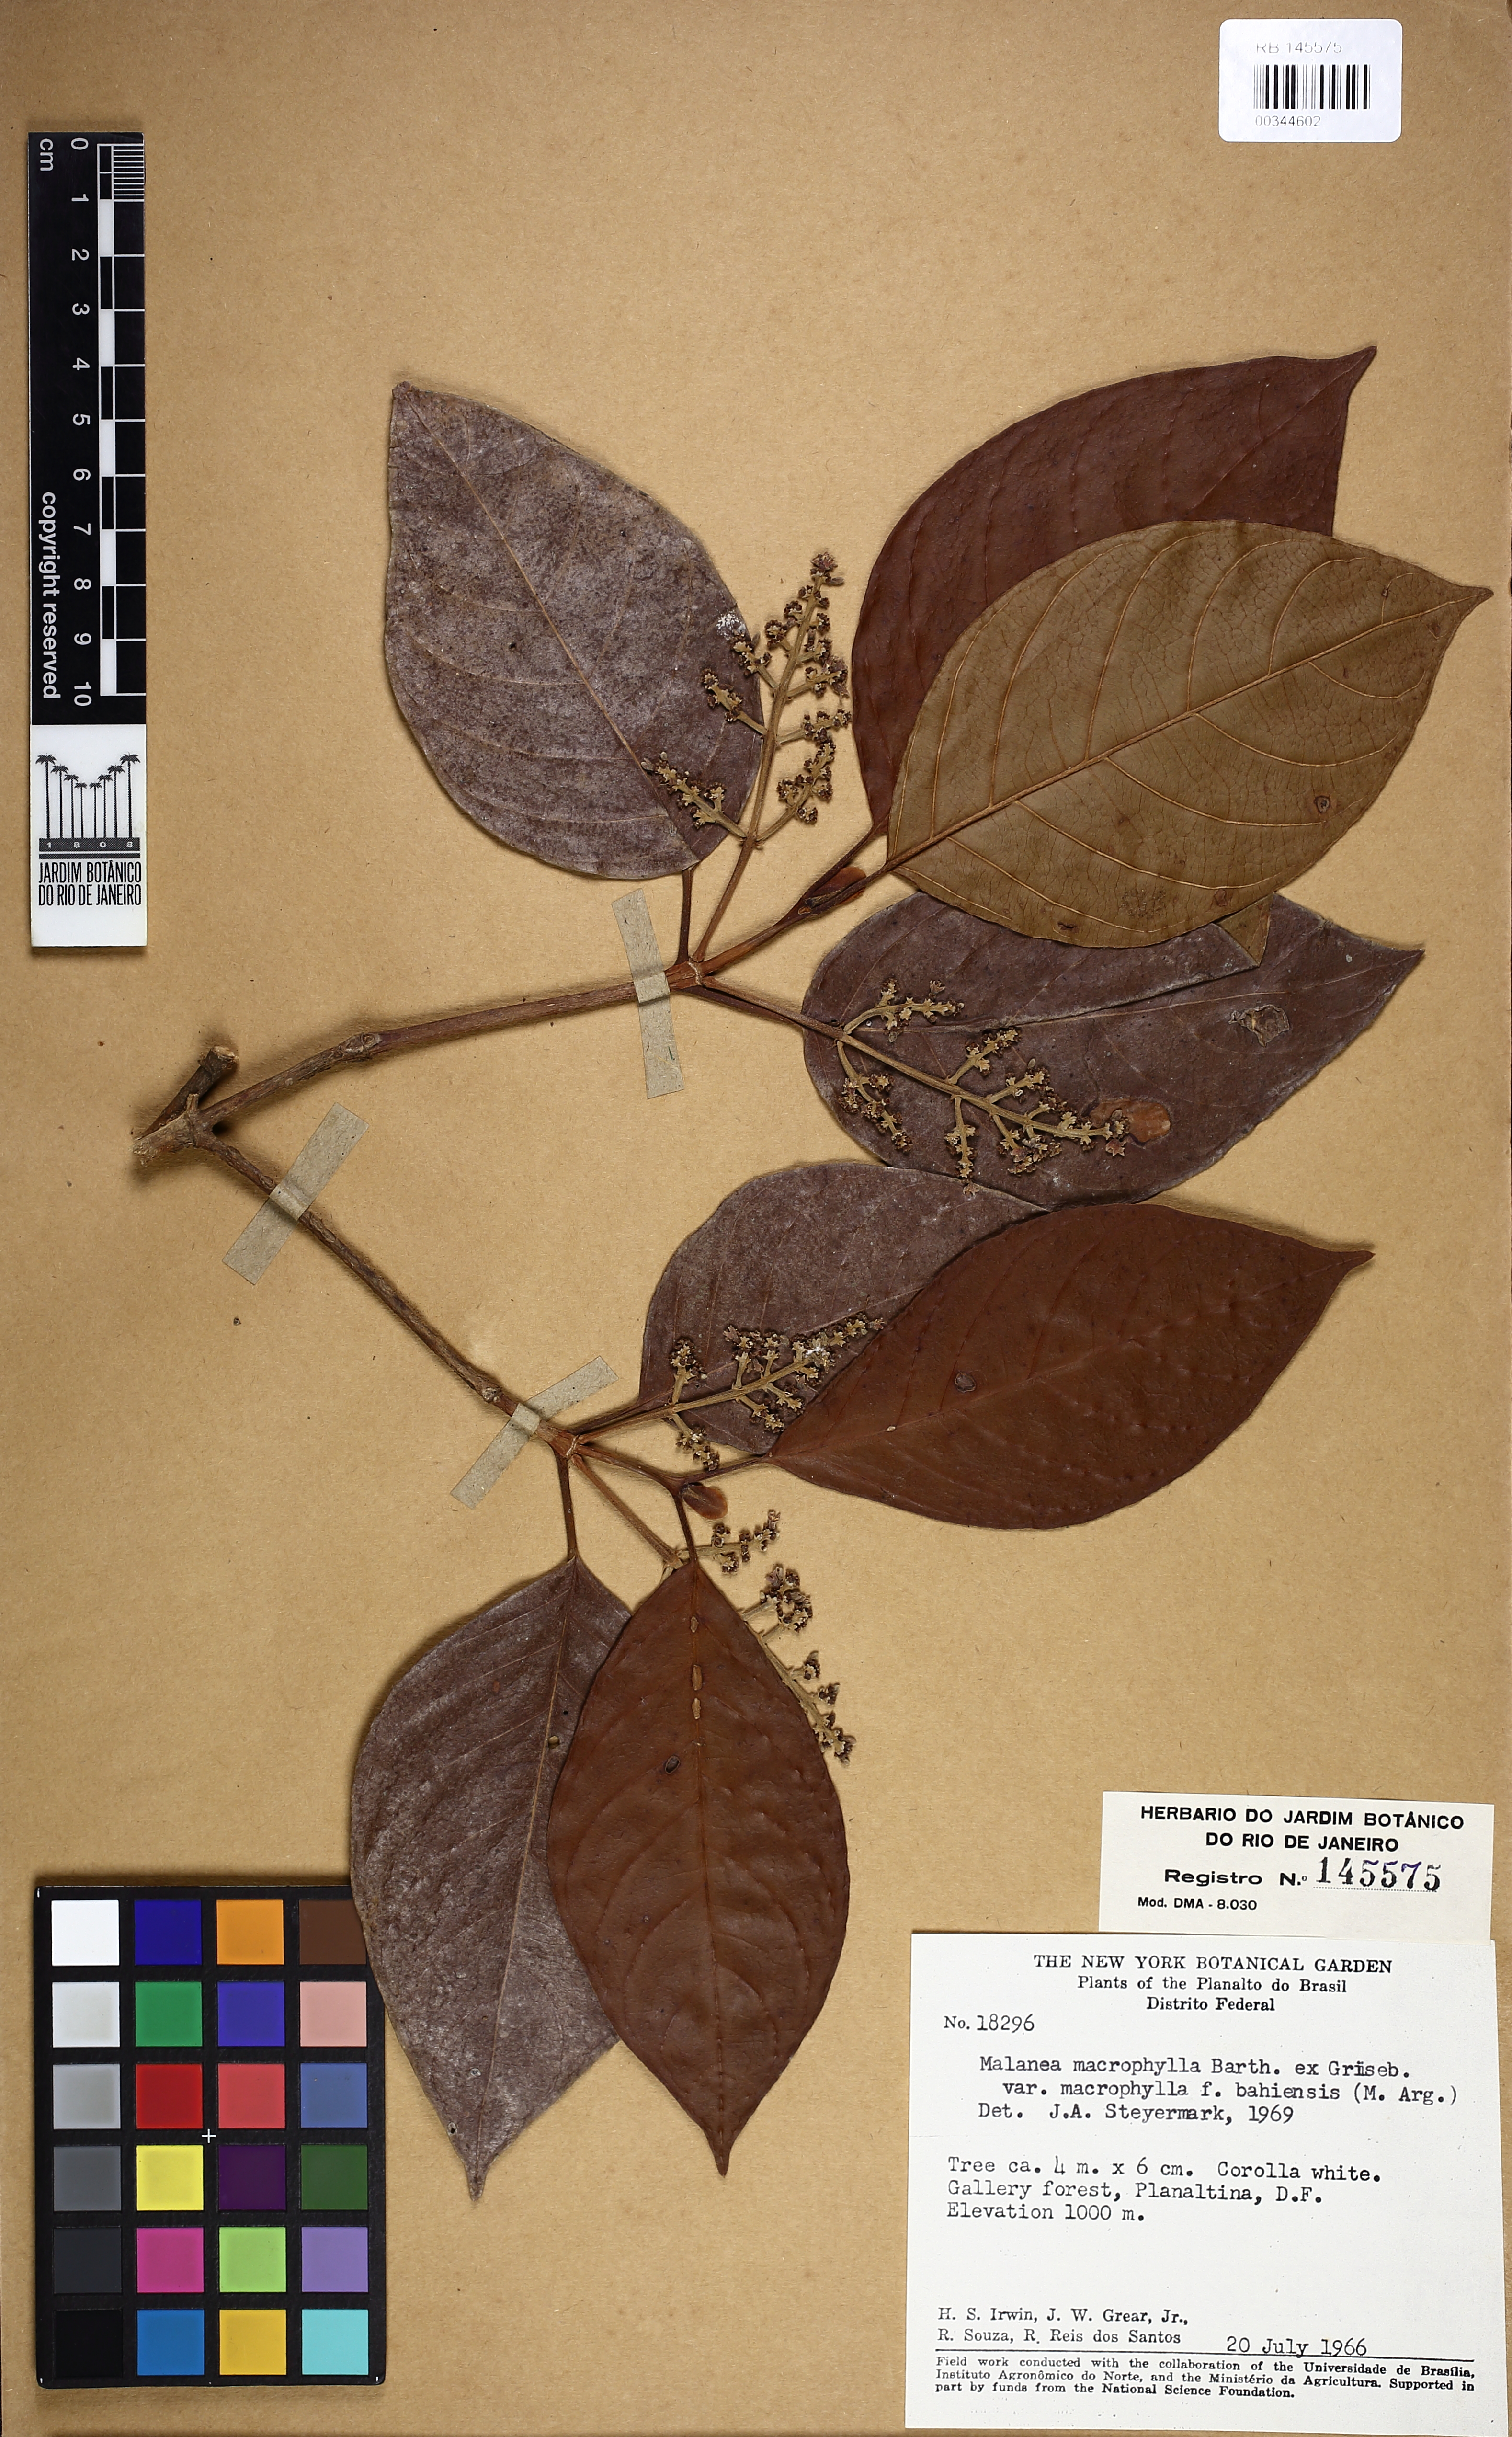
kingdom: Plantae
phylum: Tracheophyta
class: Magnoliopsida
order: Gentianales
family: Rubiaceae
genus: Malanea
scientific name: Malanea glabra
